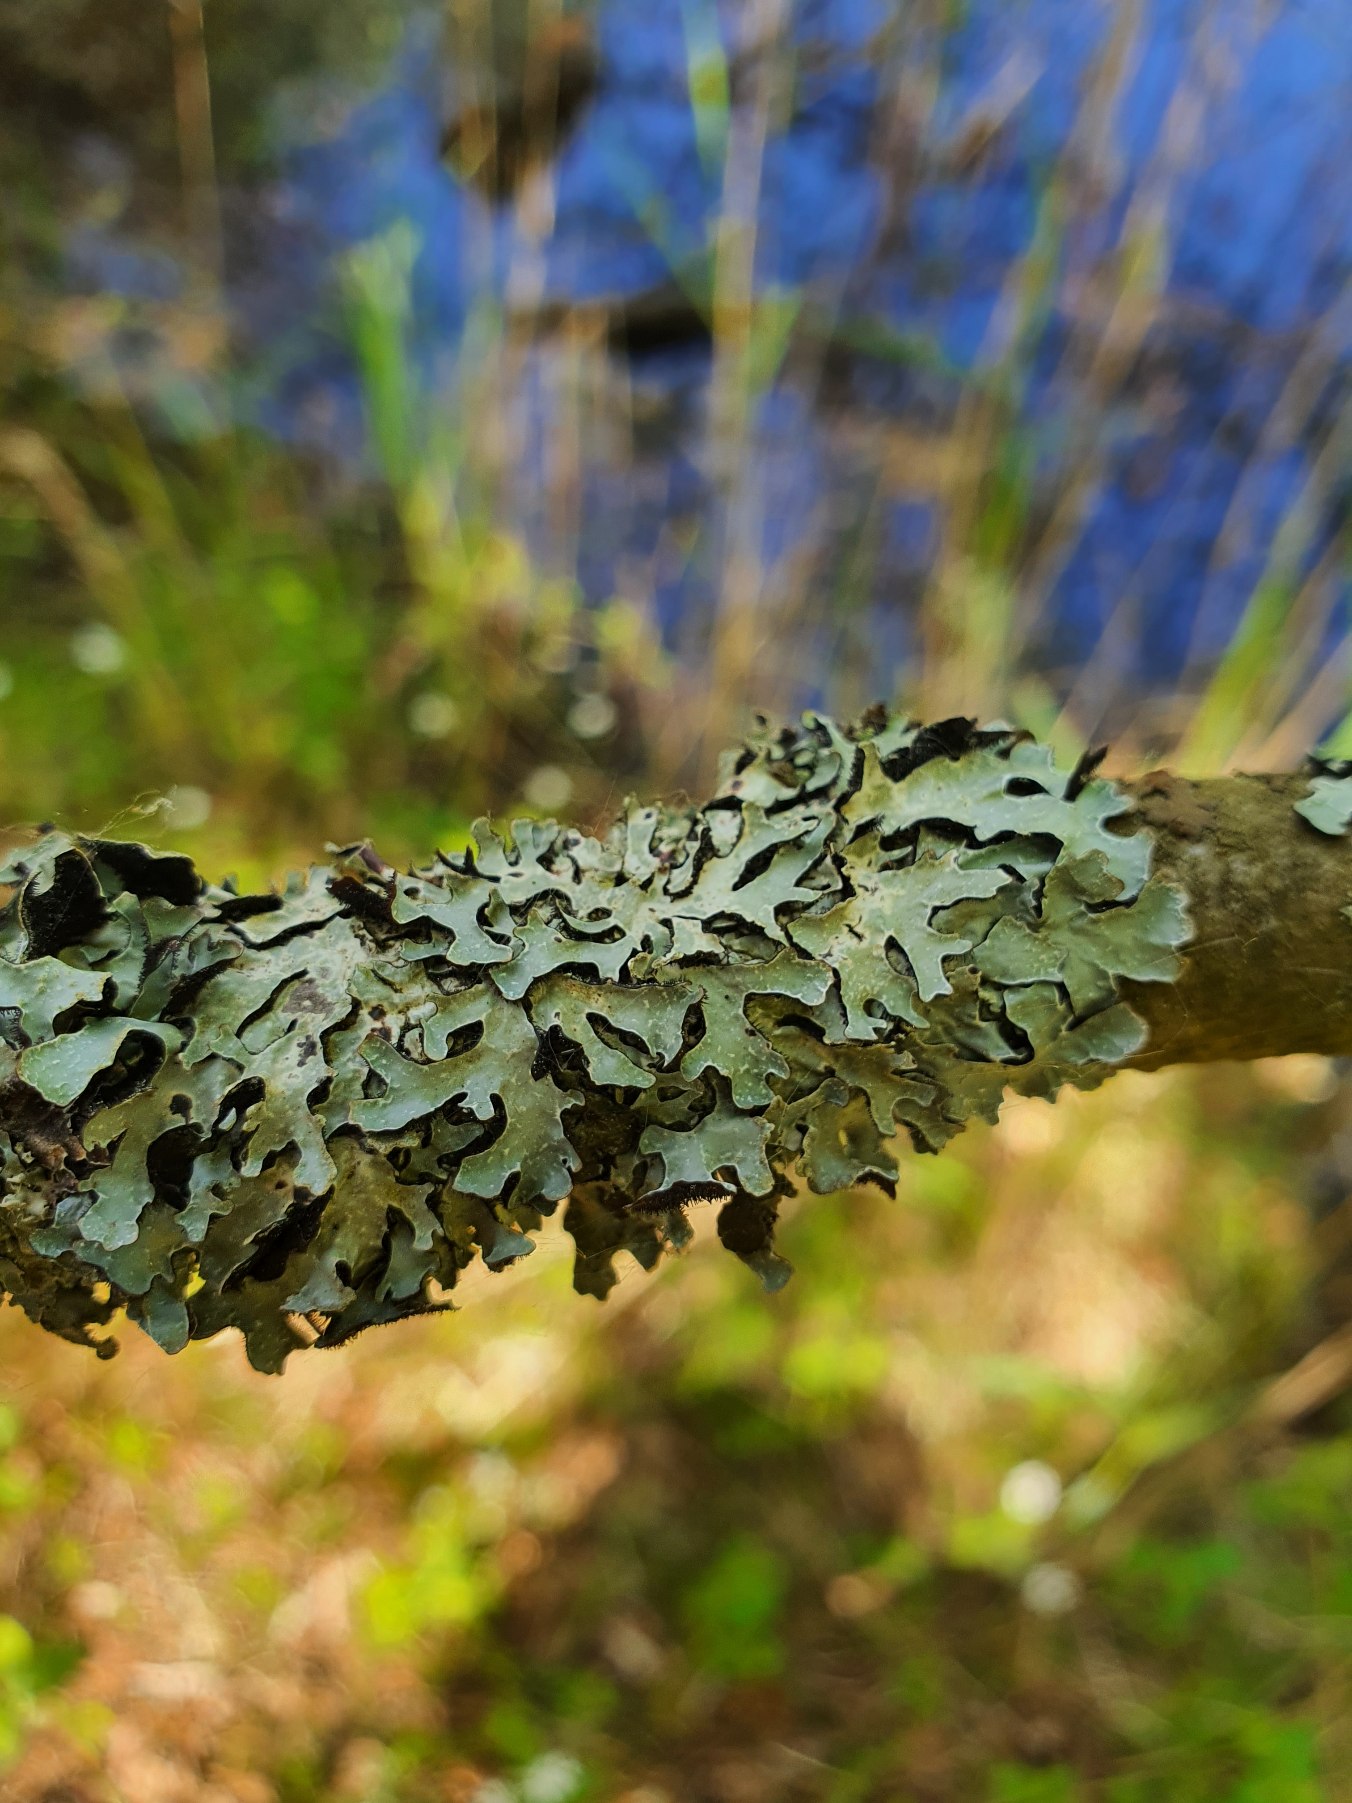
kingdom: Fungi
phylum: Ascomycota
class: Lecanoromycetes
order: Lecanorales
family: Parmeliaceae
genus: Parmelia
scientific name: Parmelia sulcata
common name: Rynket skållav
